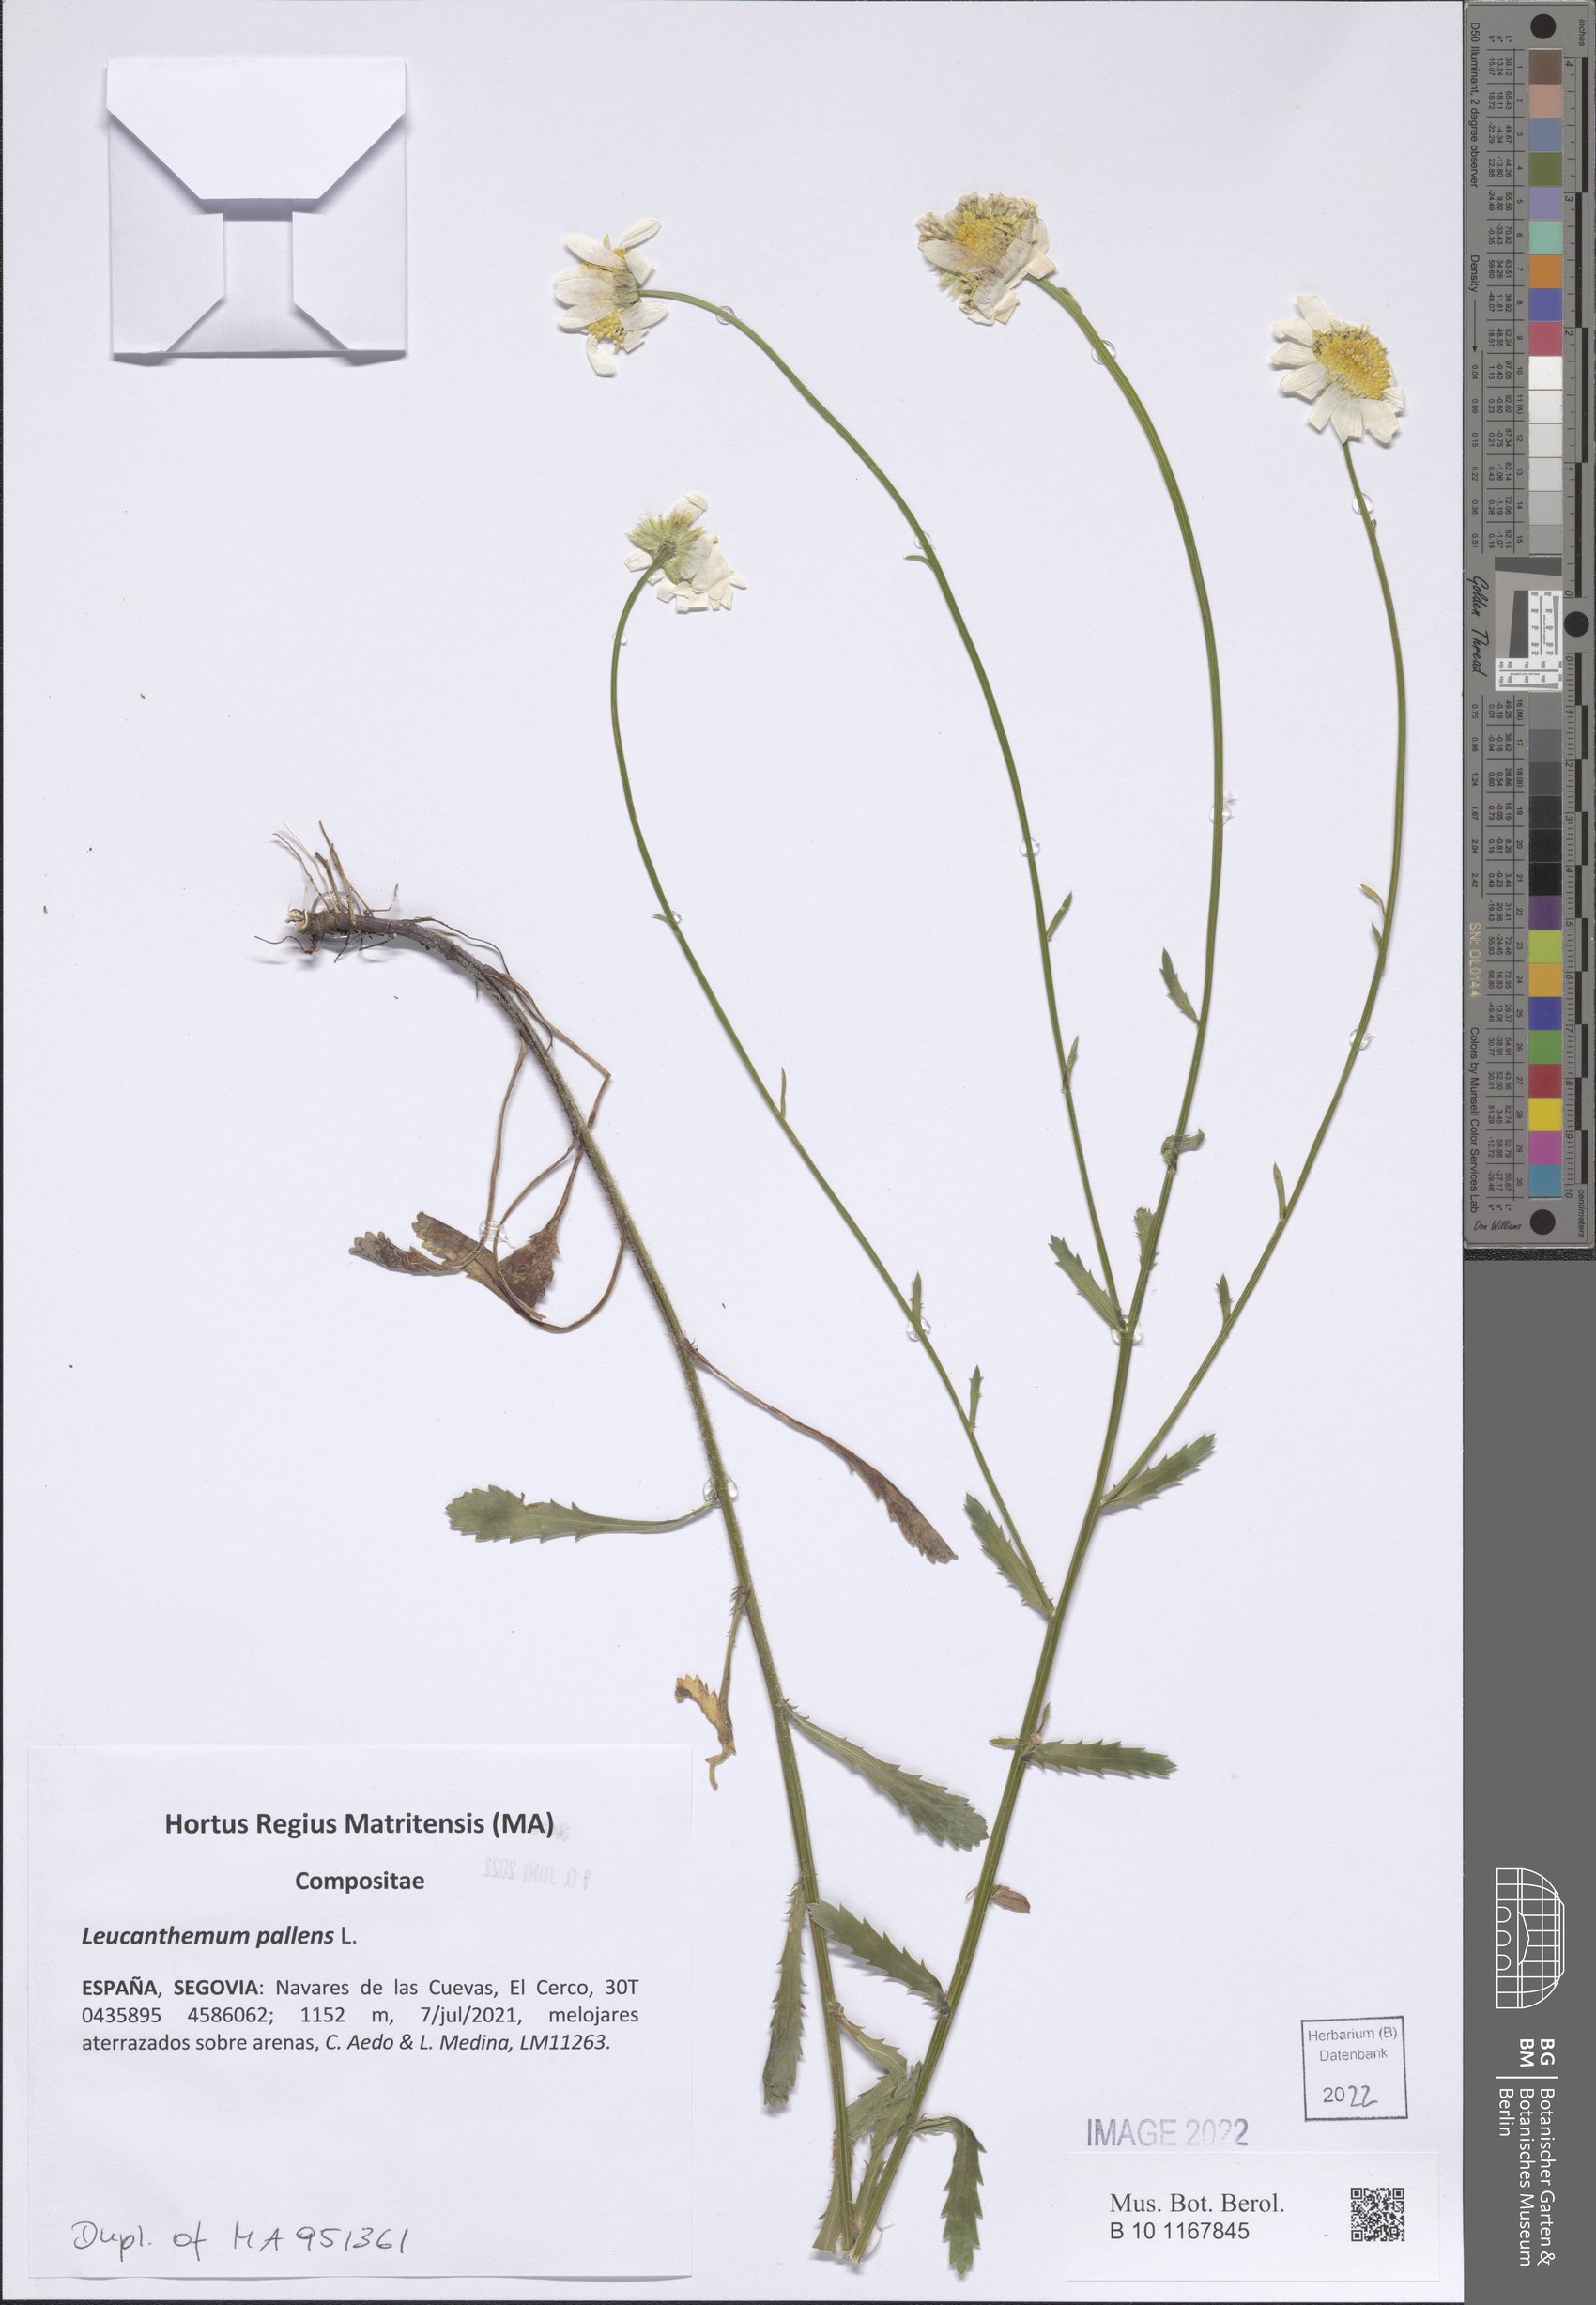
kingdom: Plantae
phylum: Tracheophyta
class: Magnoliopsida
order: Asterales
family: Asteraceae
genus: Leucanthemum
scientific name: Leucanthemum pallens
